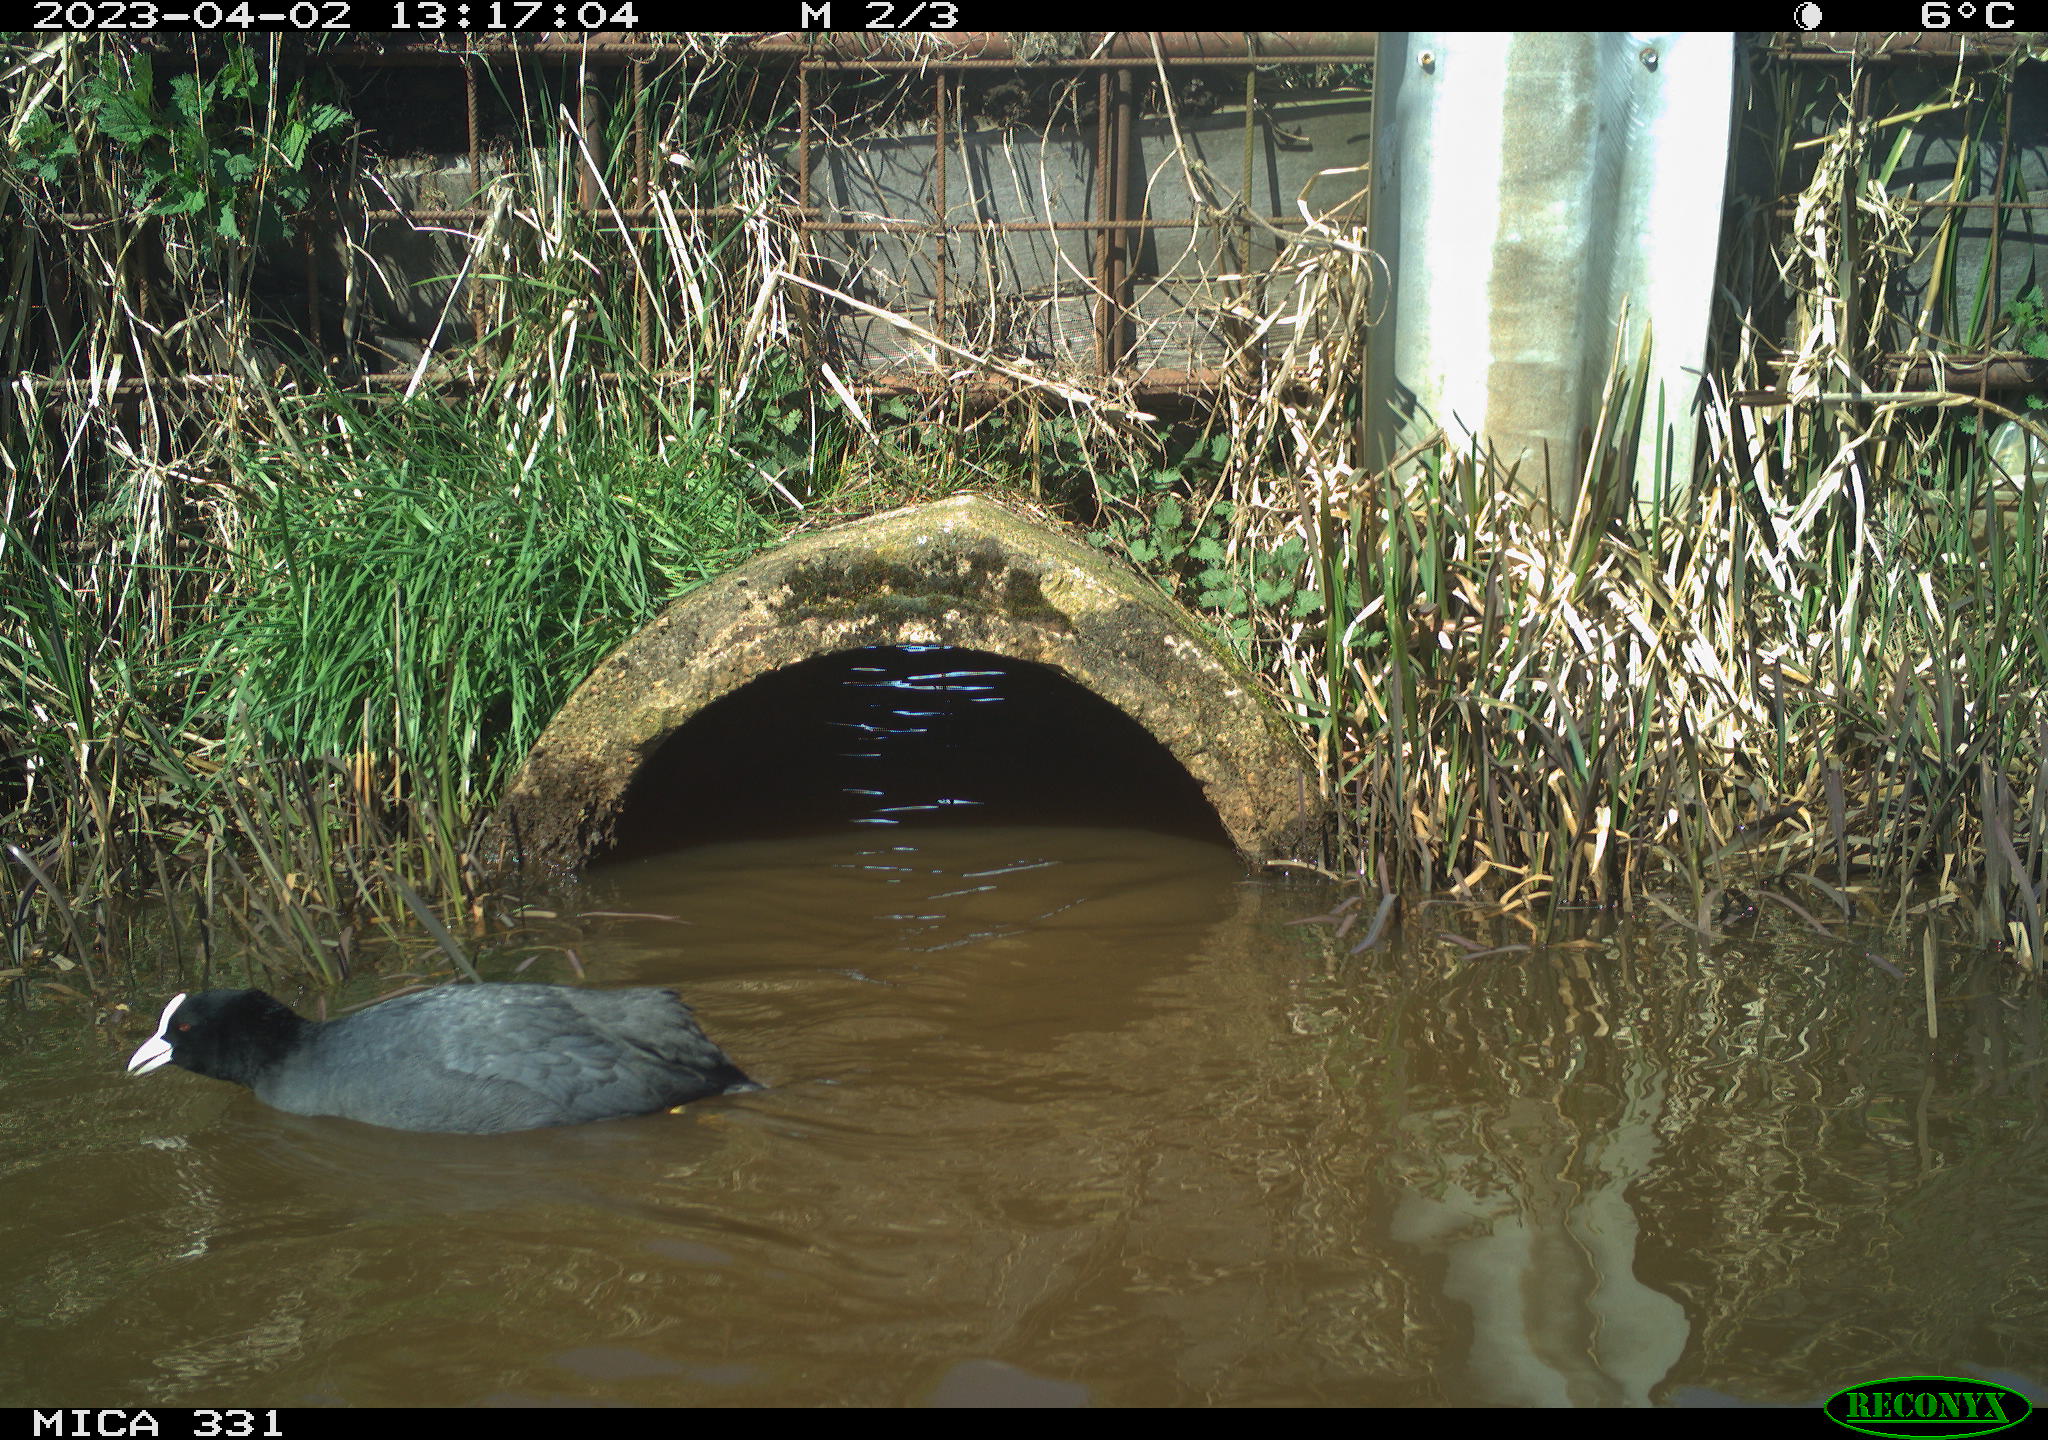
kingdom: Animalia
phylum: Chordata
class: Aves
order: Gruiformes
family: Rallidae
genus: Fulica
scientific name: Fulica atra
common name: Eurasian coot
